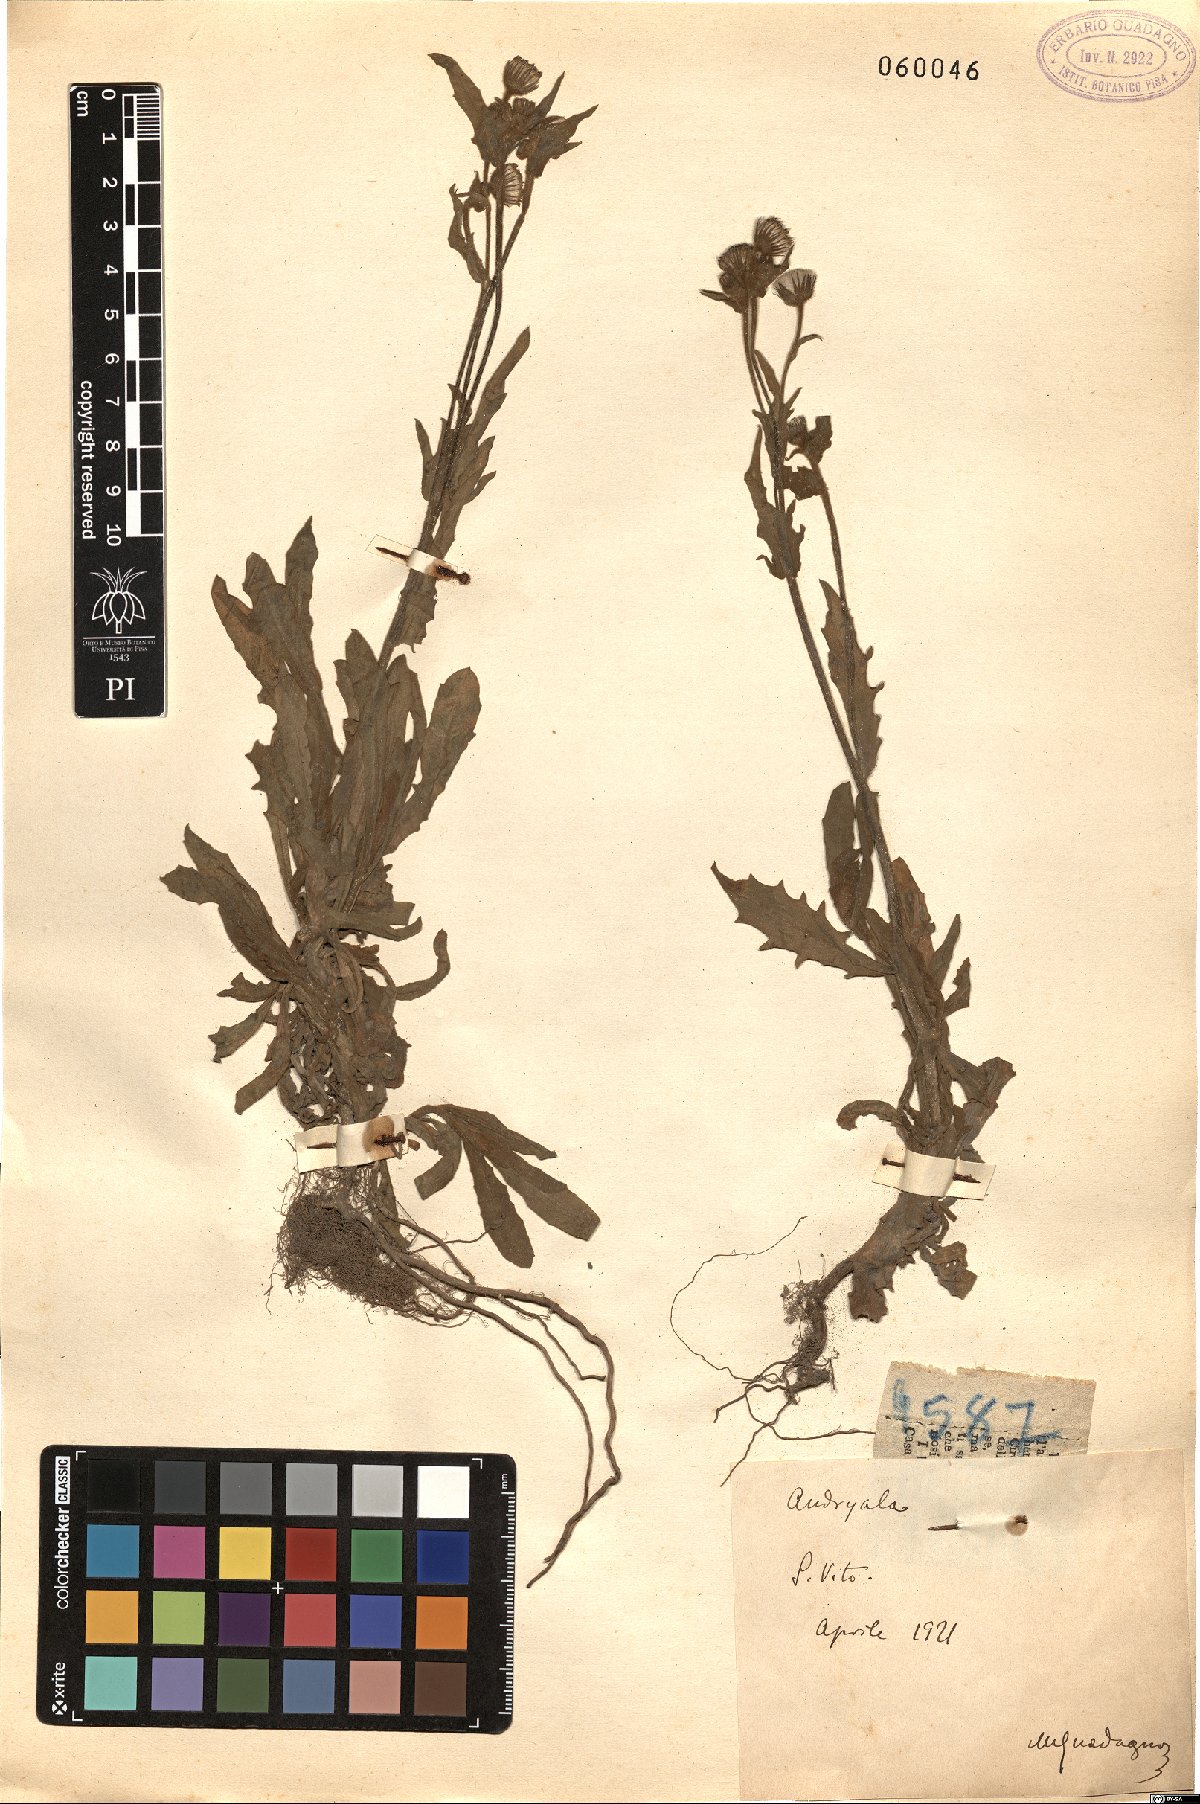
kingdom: Plantae
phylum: Tracheophyta
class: Magnoliopsida
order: Asterales
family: Asteraceae
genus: Andryala
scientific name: Andryala
